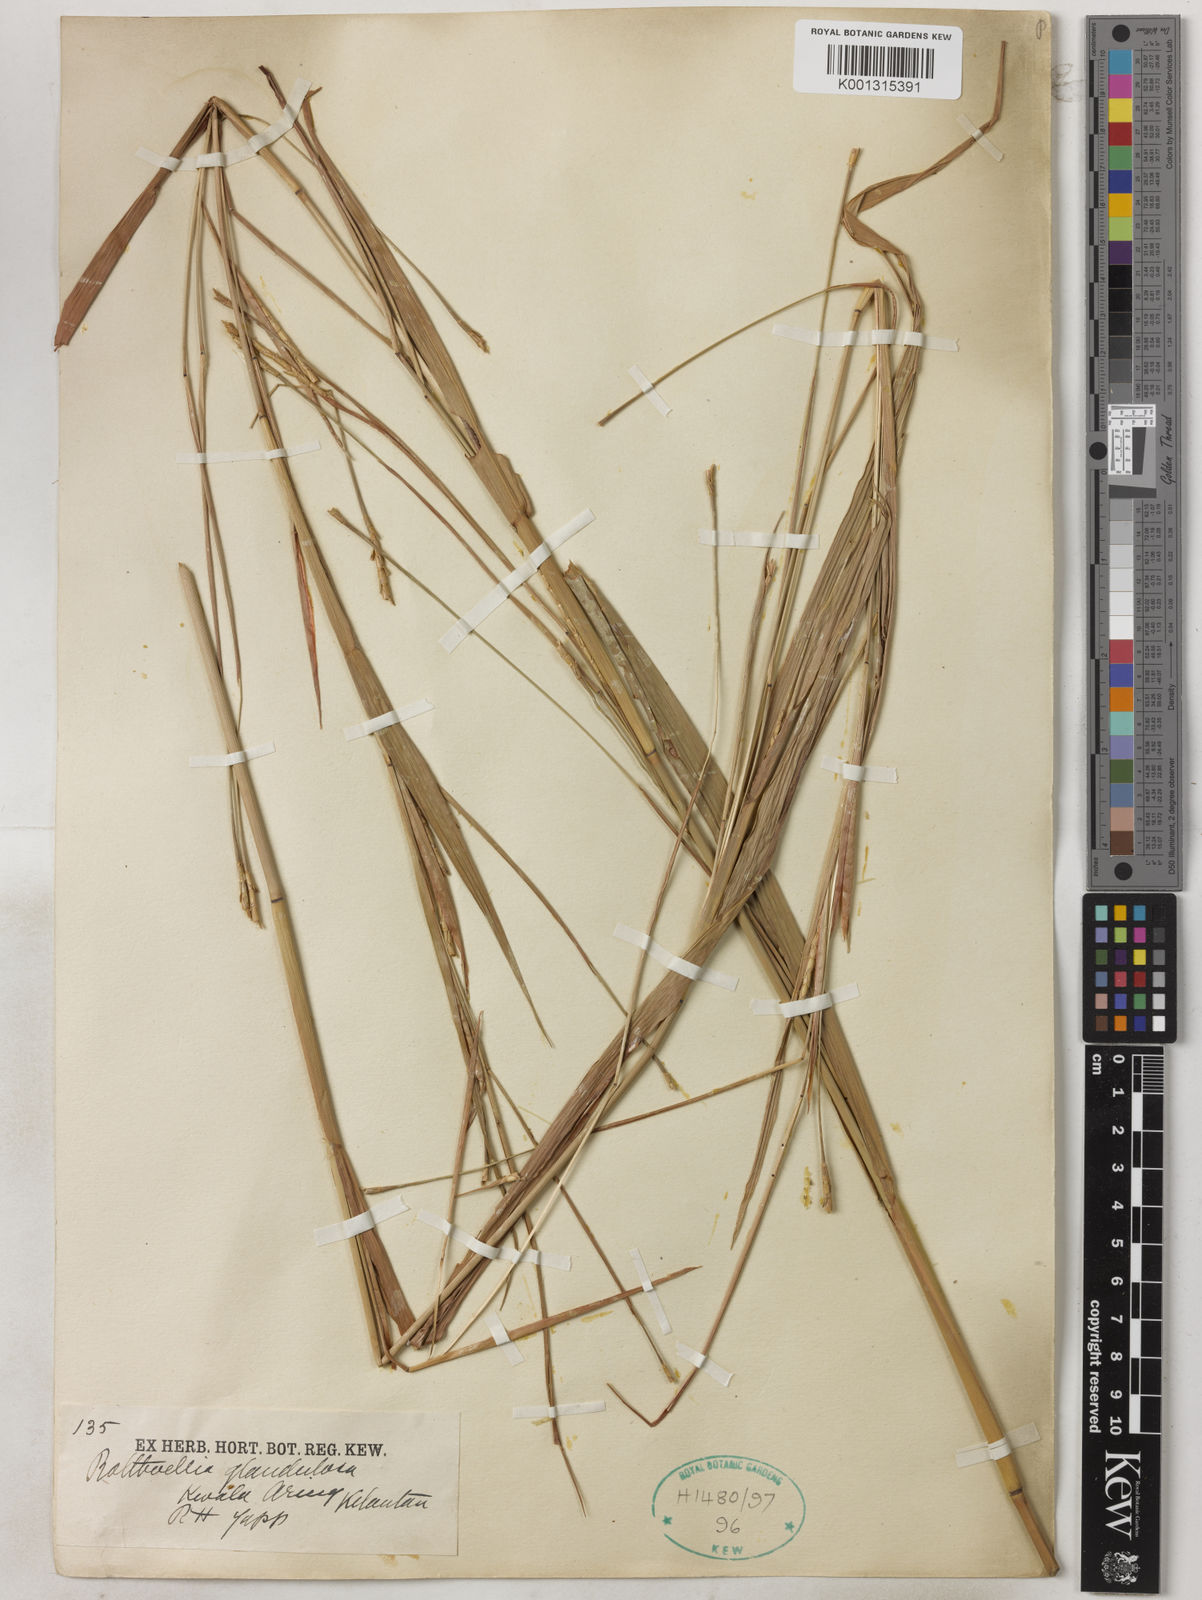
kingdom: Plantae
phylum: Tracheophyta
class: Liliopsida
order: Poales
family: Poaceae
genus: Rottboellia
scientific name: Rottboellia glandulosa
